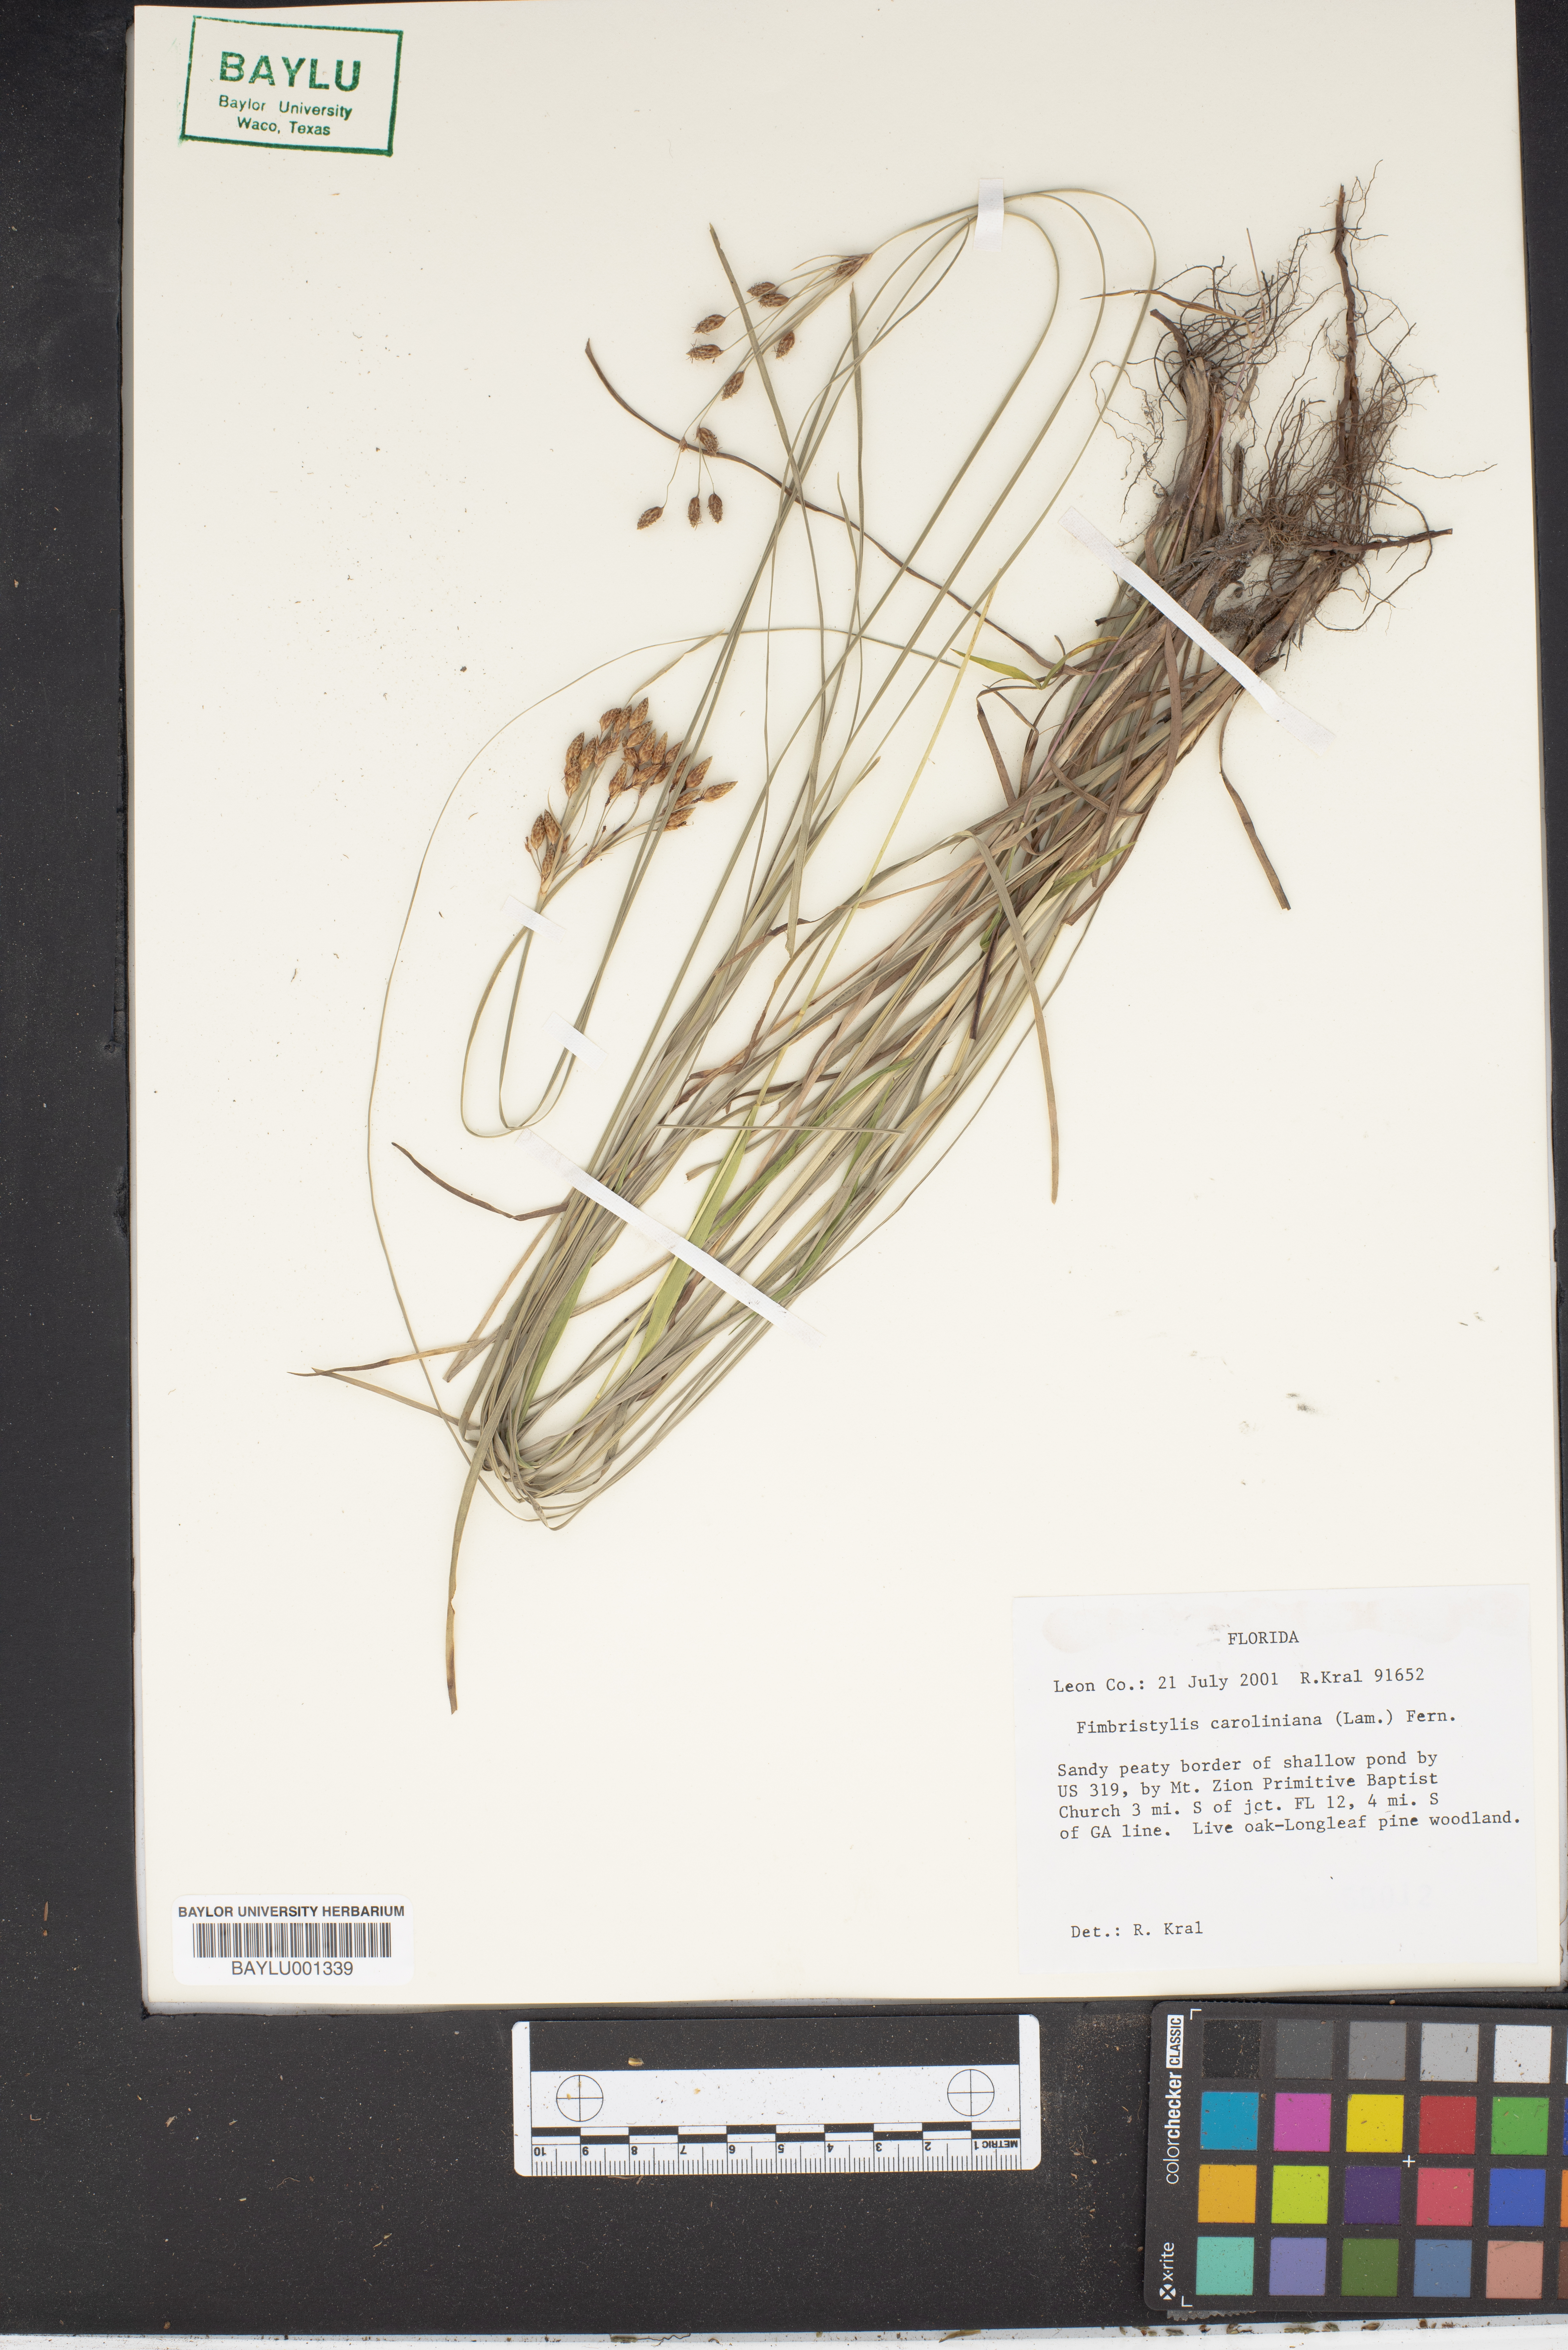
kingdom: Plantae
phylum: Tracheophyta
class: Liliopsida
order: Poales
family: Cyperaceae
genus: Fimbristylis
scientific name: Fimbristylis caroliniana
